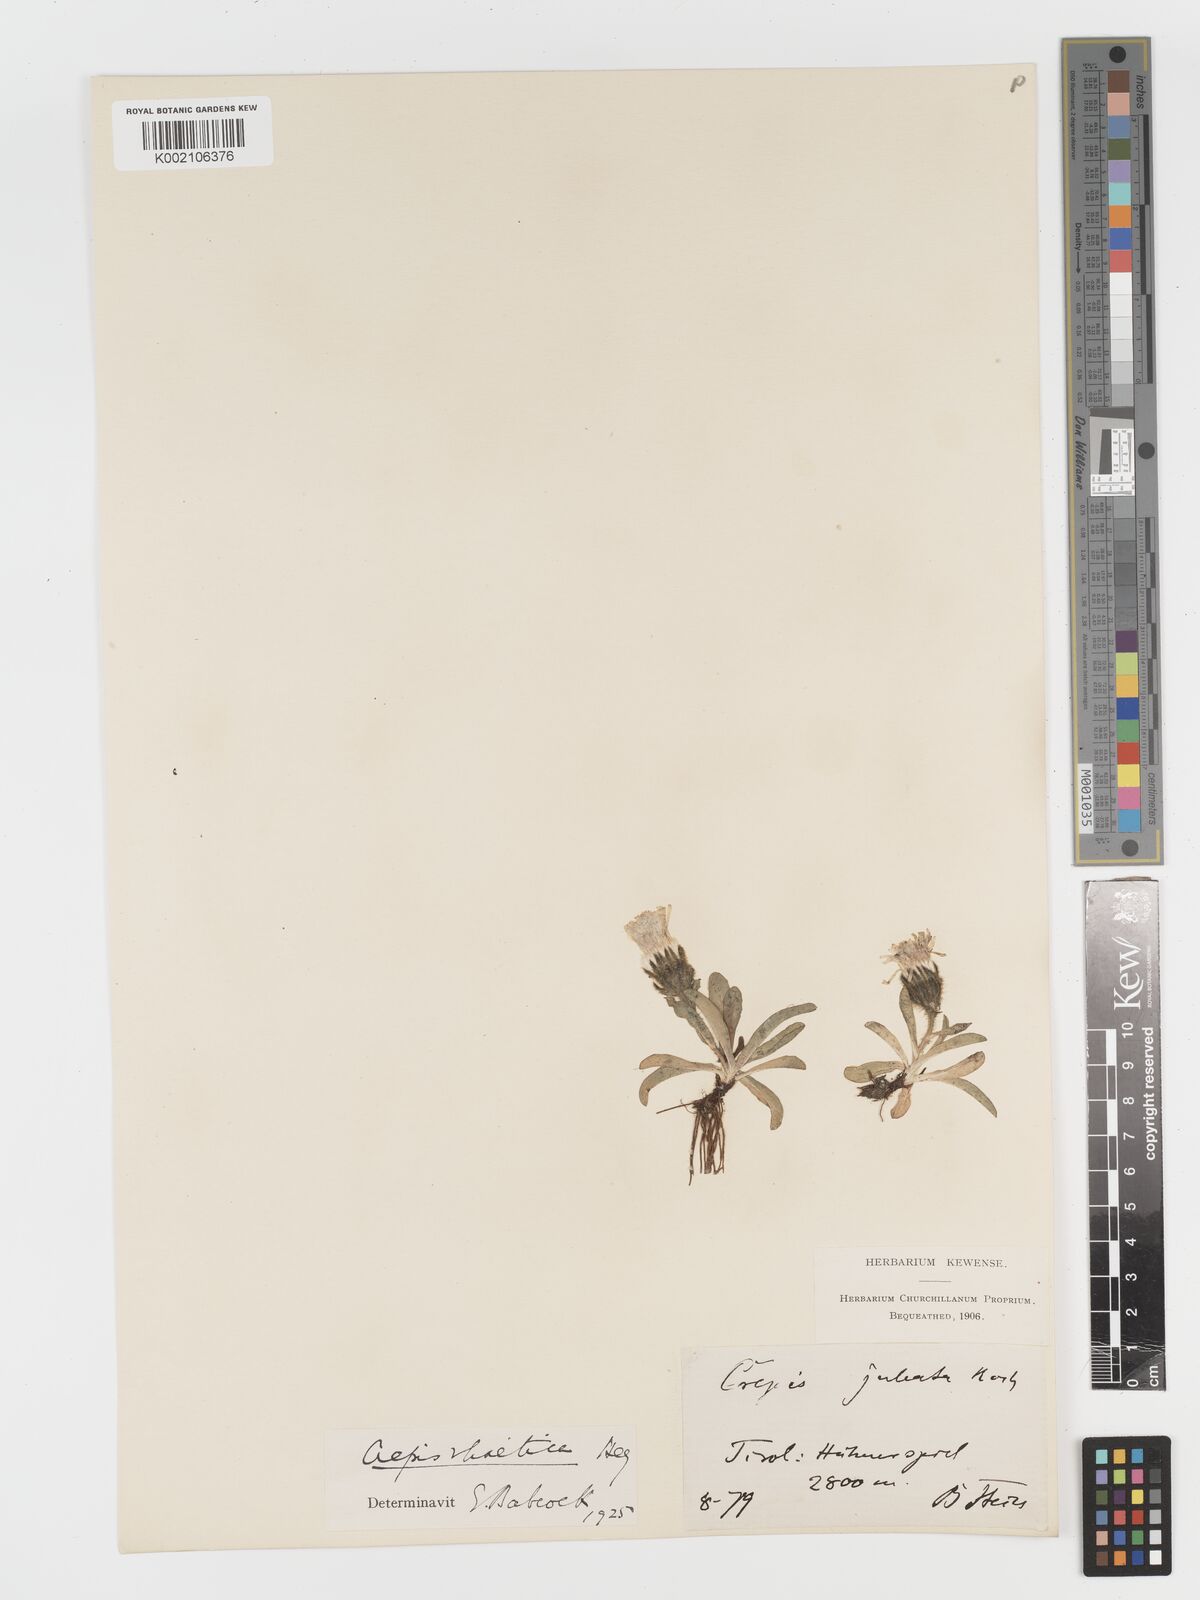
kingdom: Plantae
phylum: Tracheophyta
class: Magnoliopsida
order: Asterales
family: Asteraceae
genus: Crepis
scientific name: Crepis
